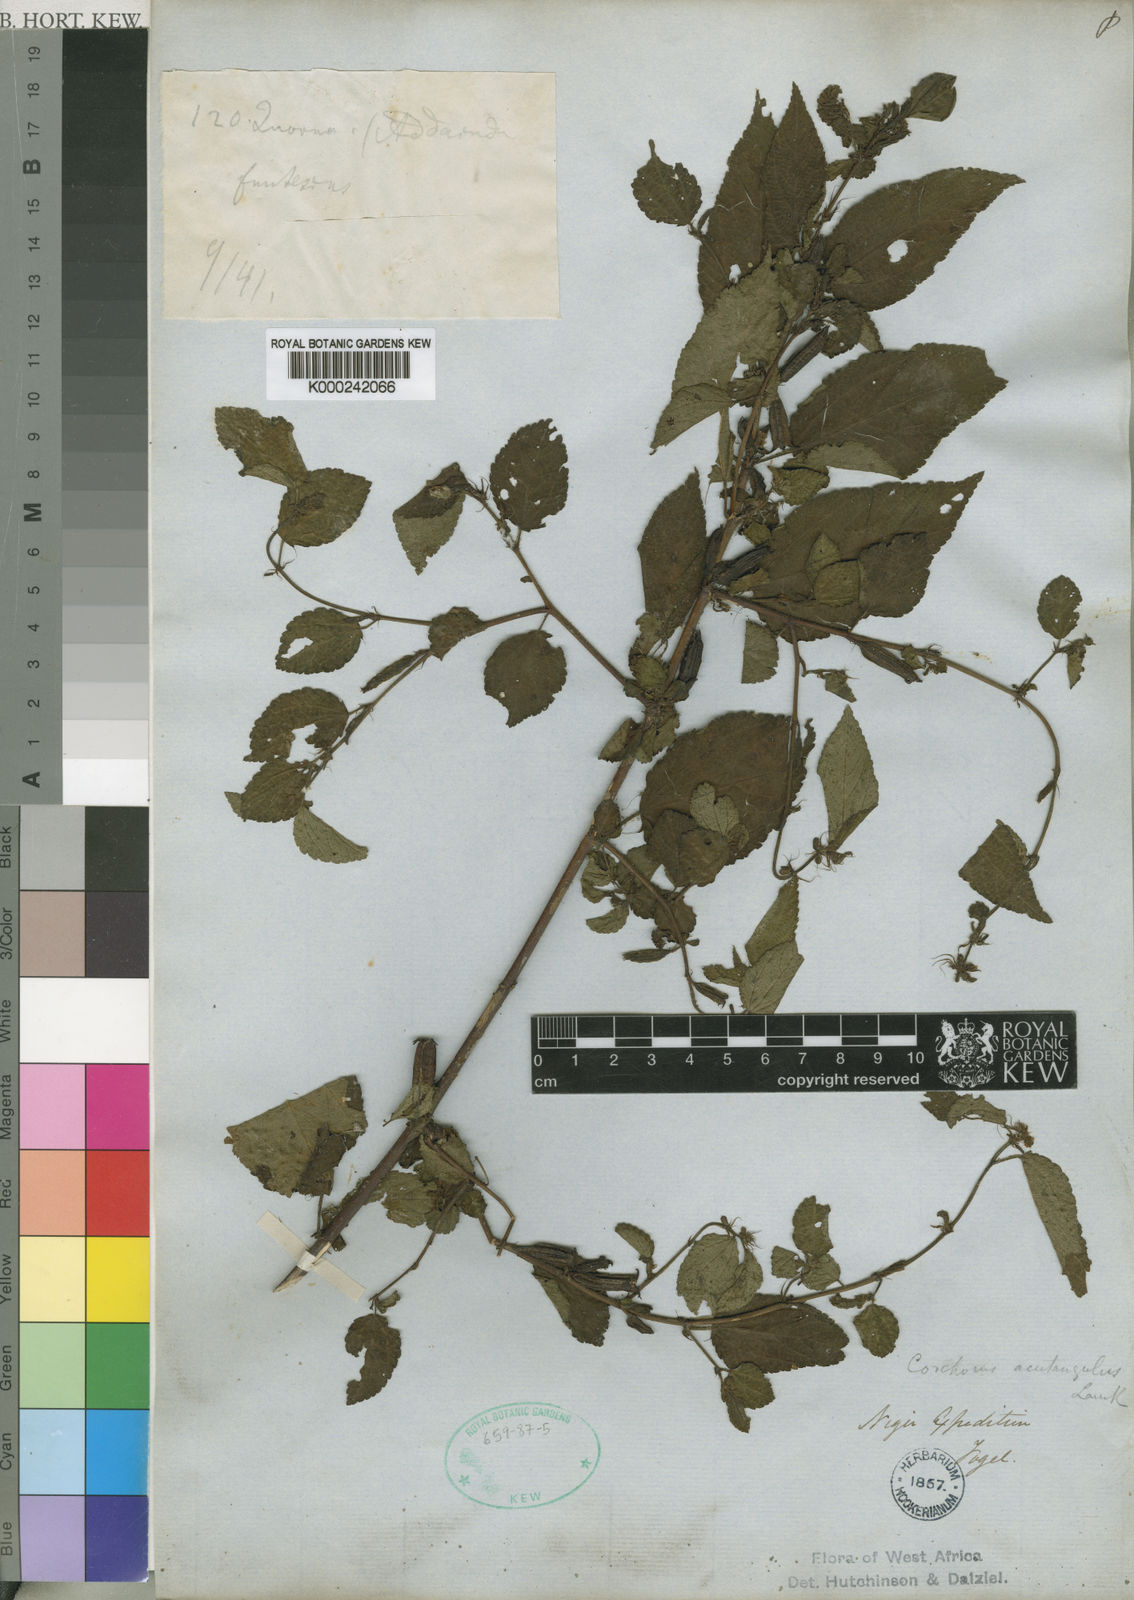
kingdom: Plantae
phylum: Tracheophyta
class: Magnoliopsida
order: Malvales
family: Malvaceae
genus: Corchorus
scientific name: Corchorus aestuans
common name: Jute
